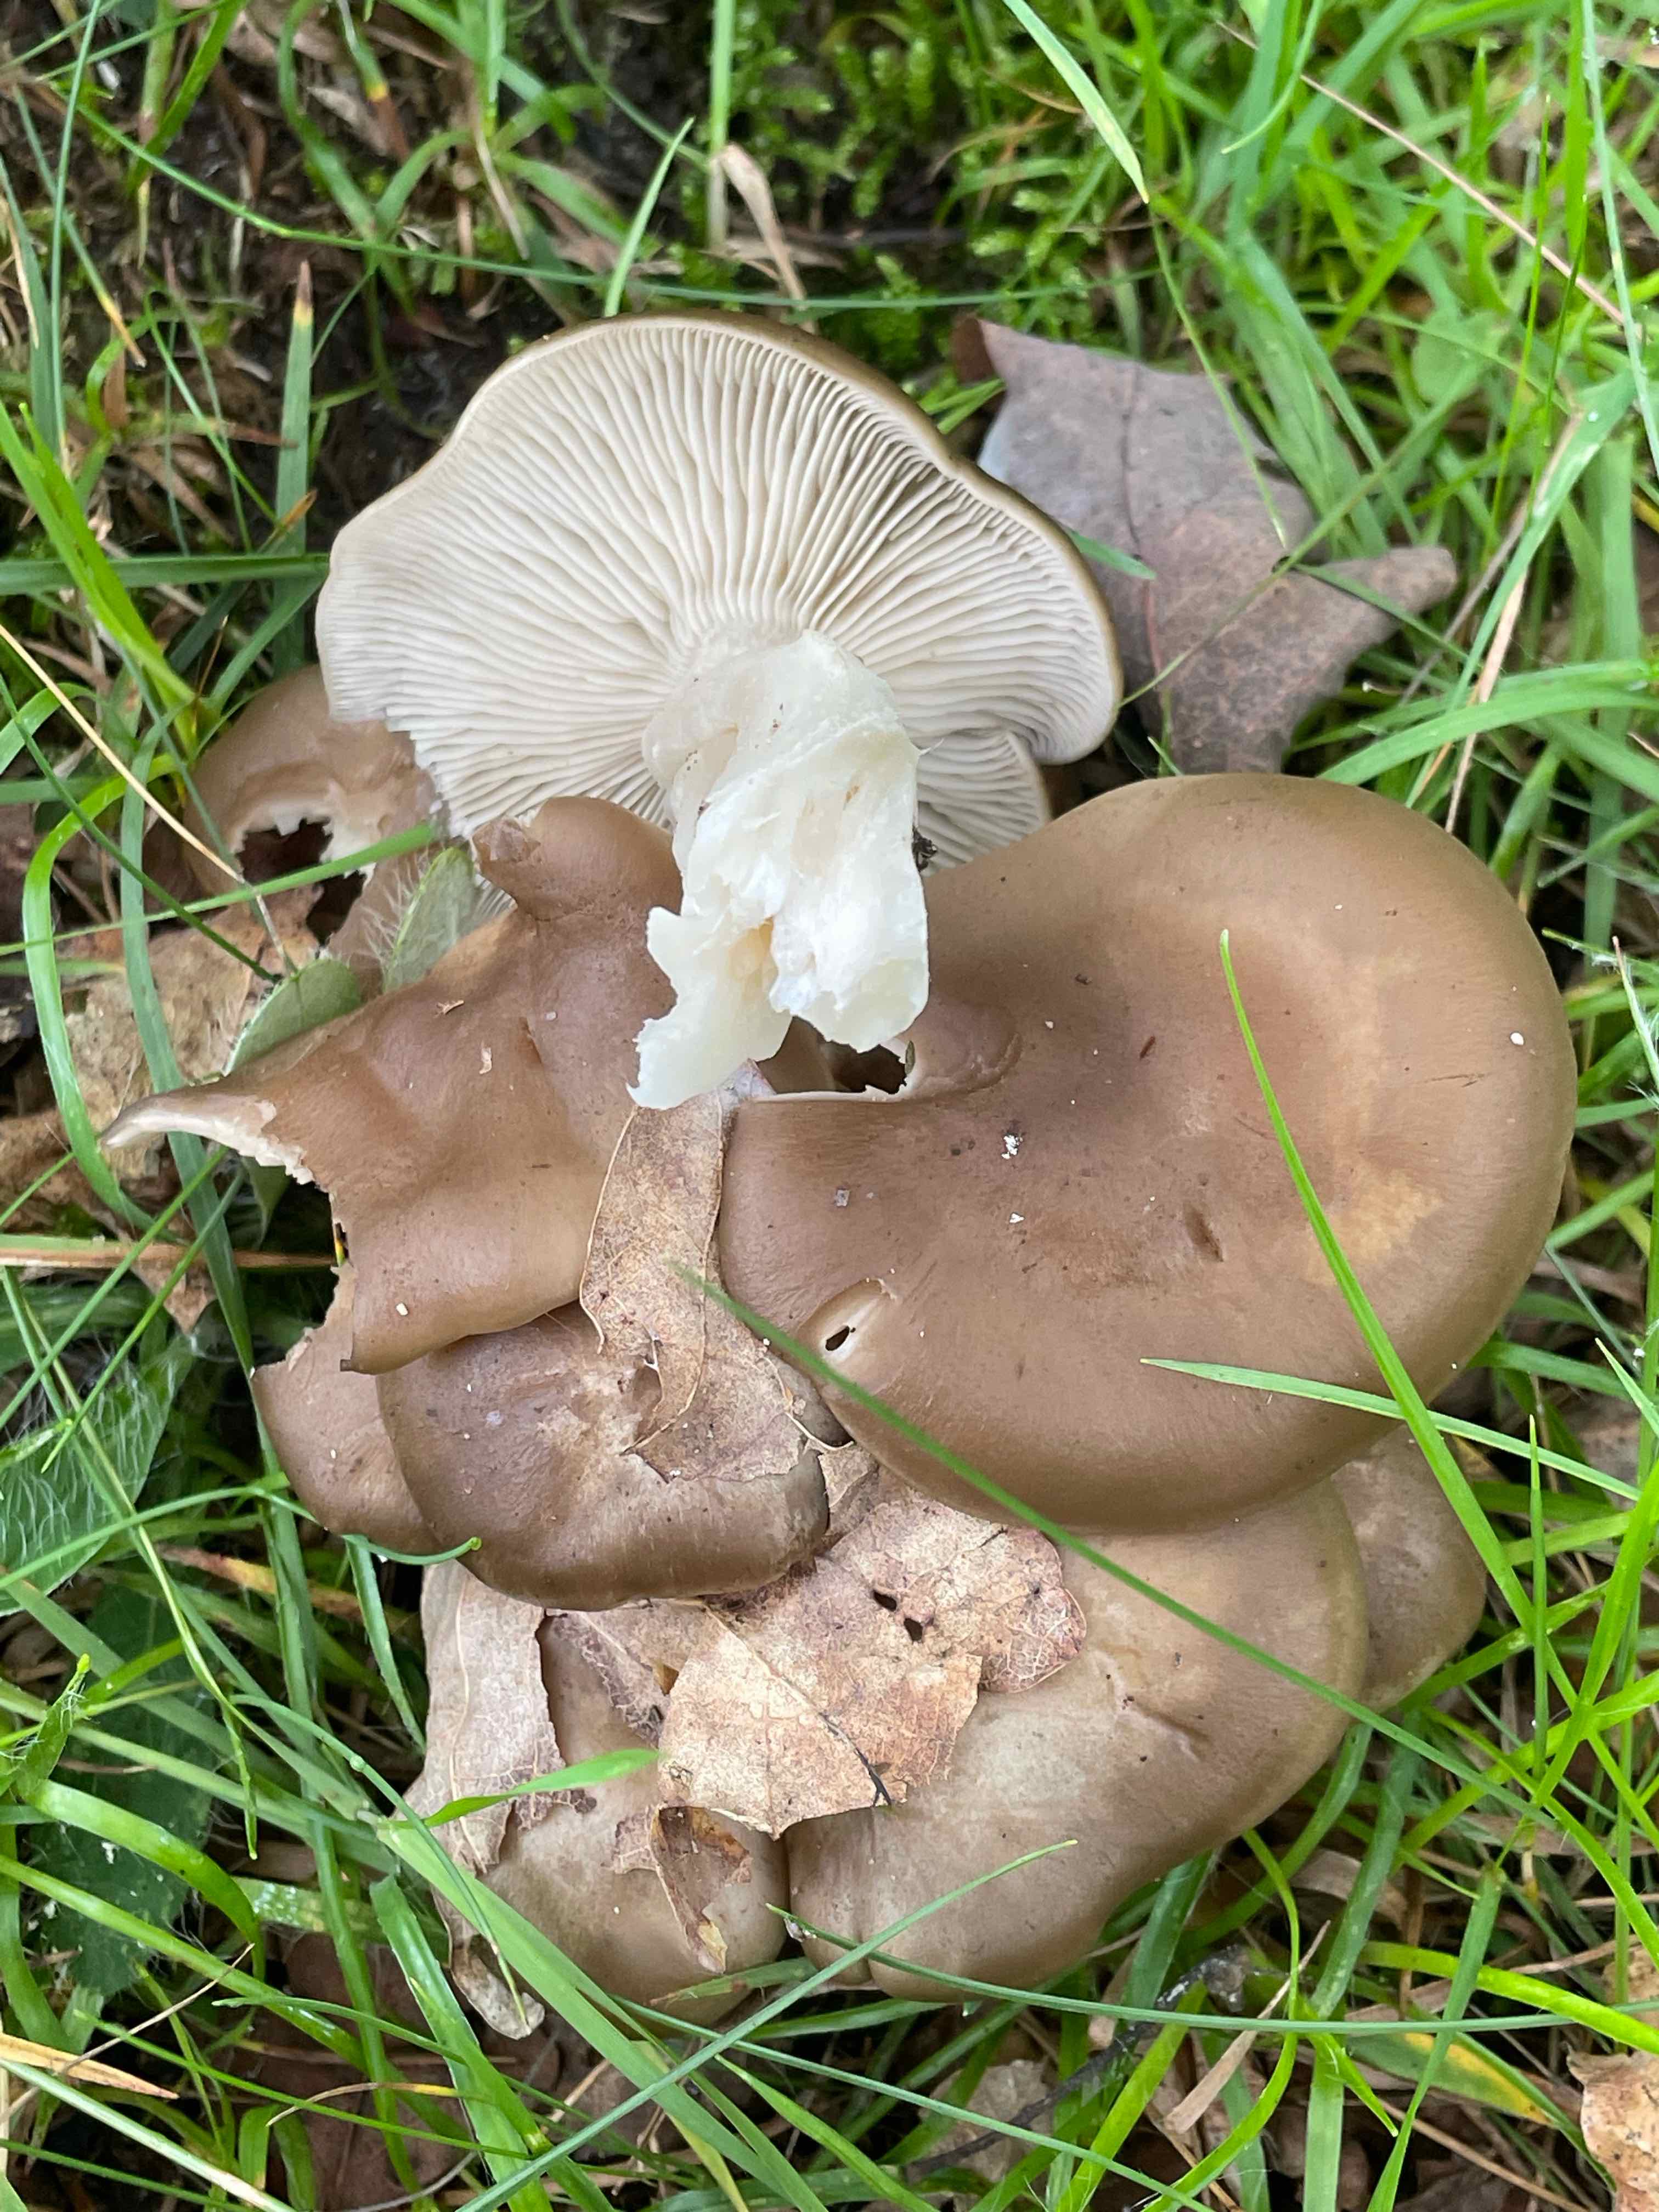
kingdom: Fungi
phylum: Basidiomycota
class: Agaricomycetes
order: Agaricales
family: Lyophyllaceae
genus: Lyophyllum
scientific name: Lyophyllum decastes
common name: Clustered domecap
